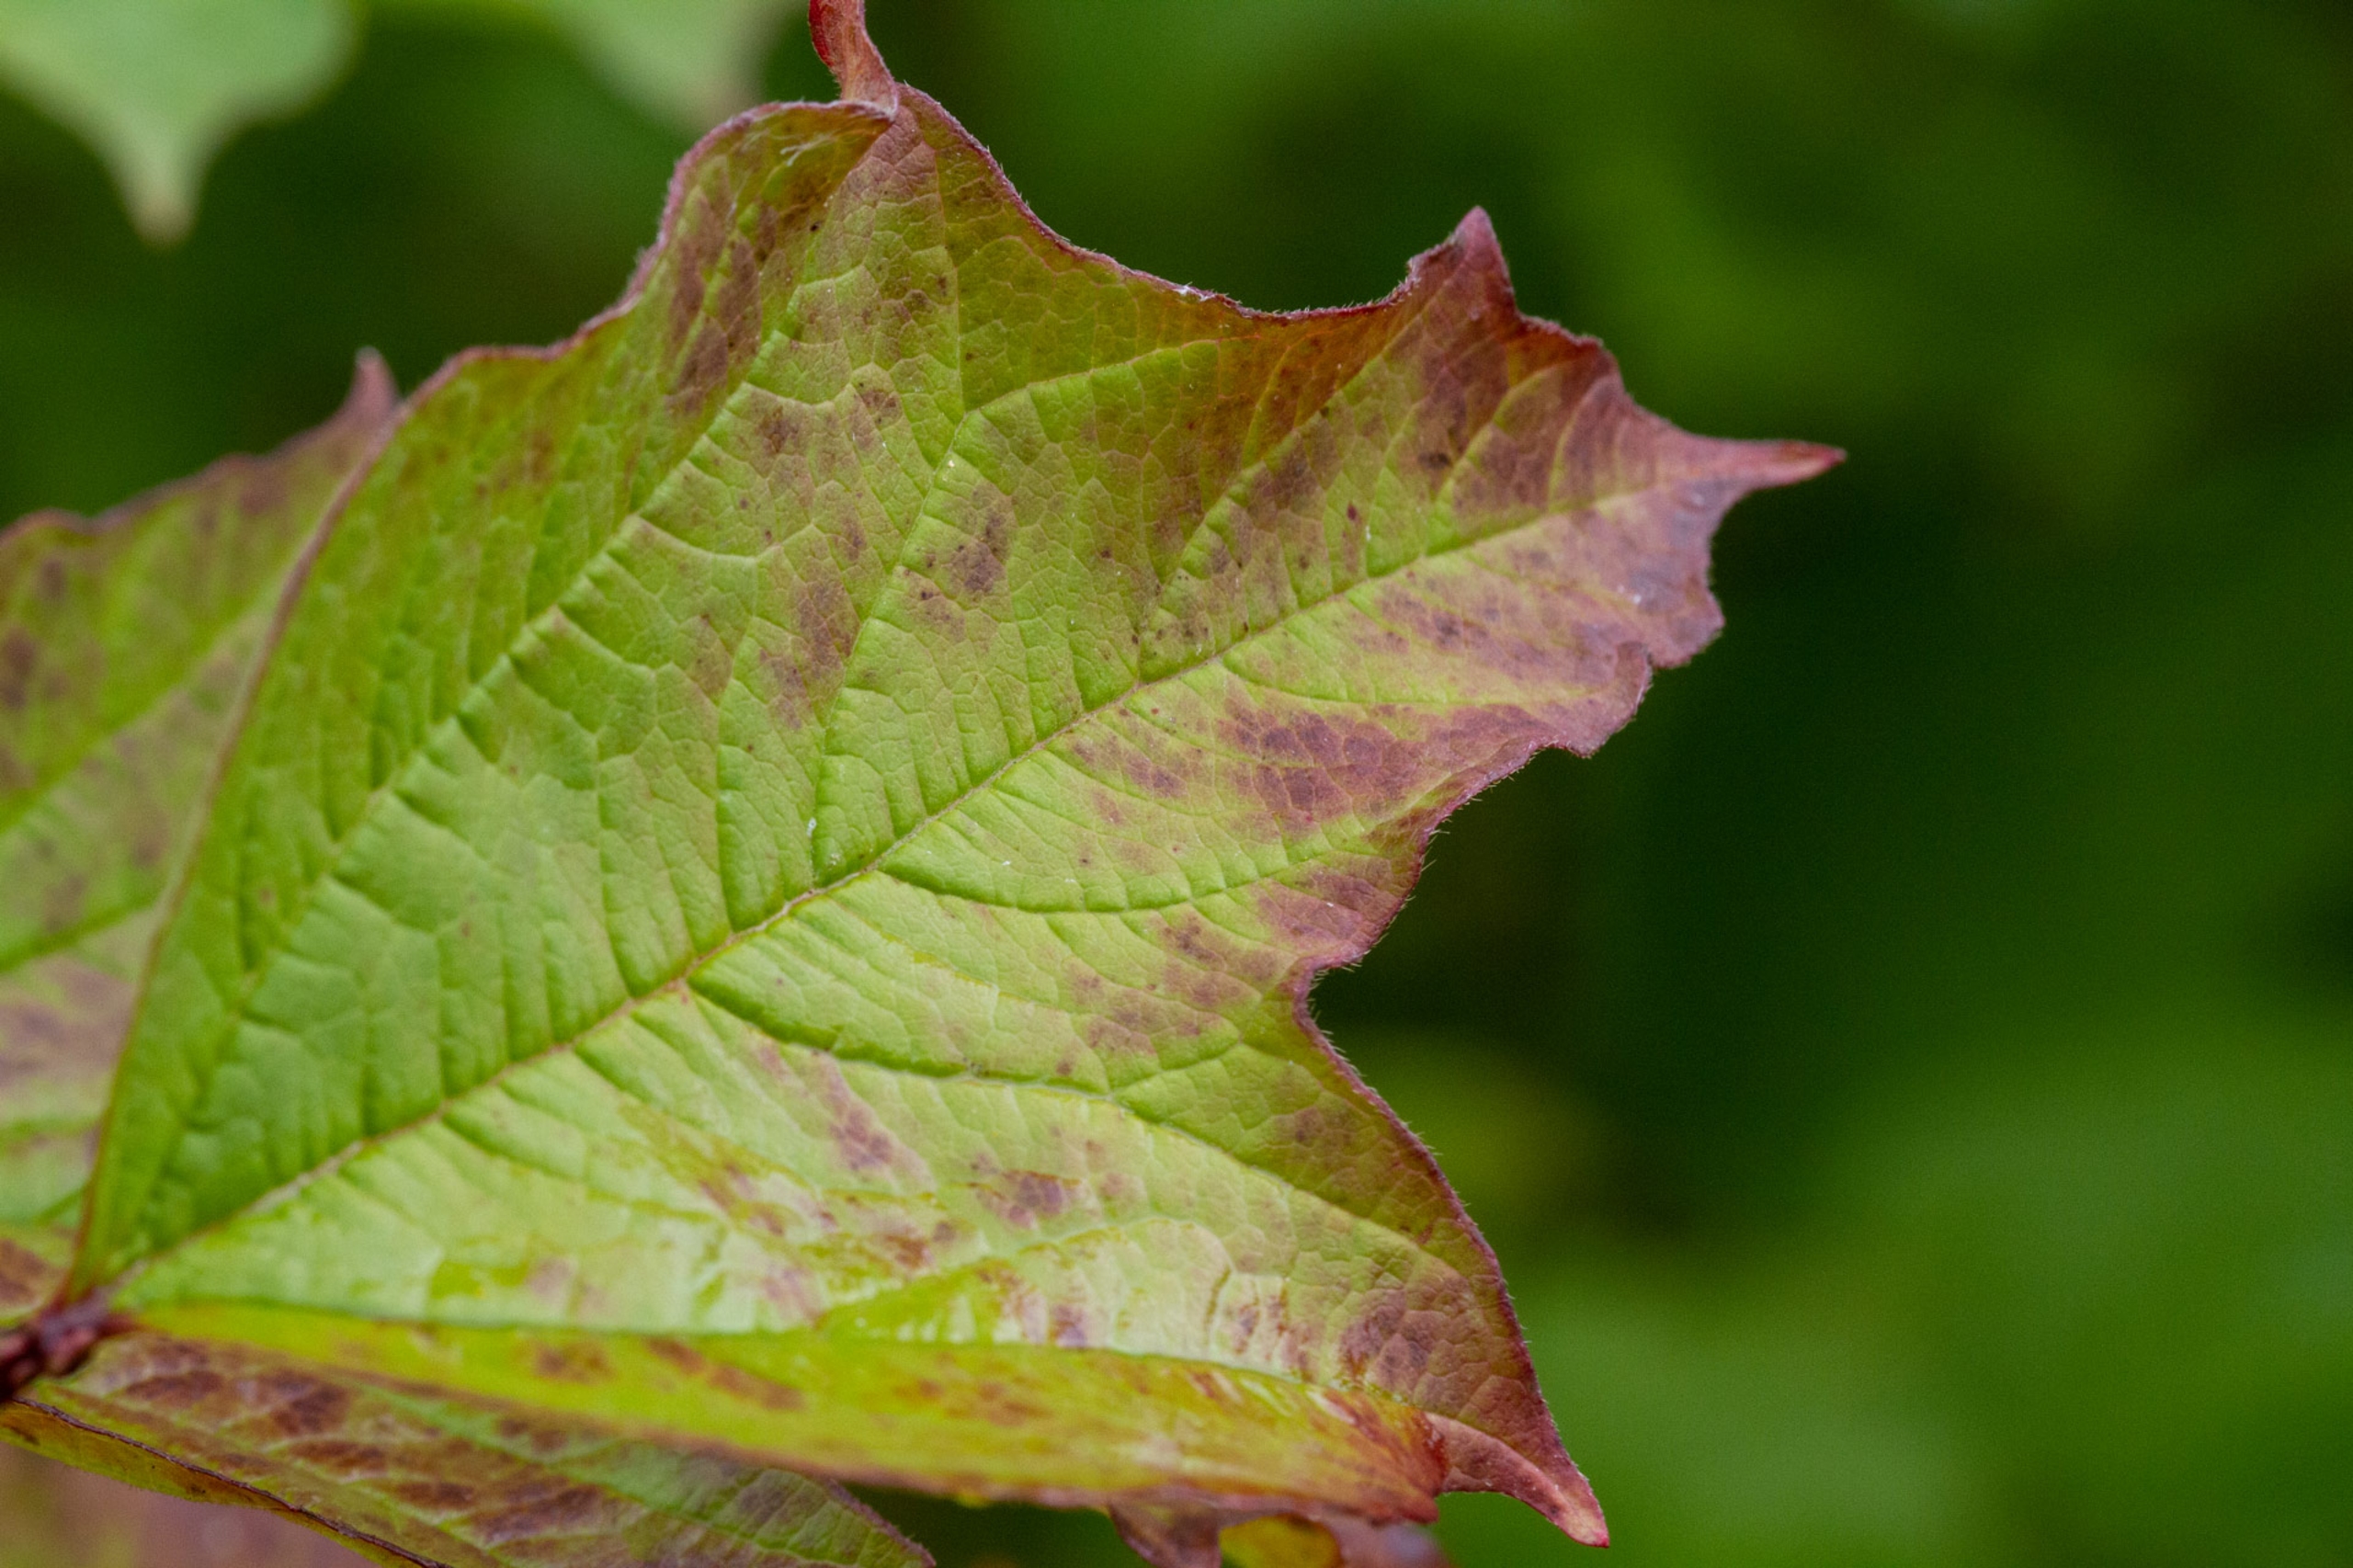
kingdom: Plantae
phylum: Tracheophyta
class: Magnoliopsida
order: Dipsacales
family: Viburnaceae
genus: Viburnum
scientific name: Viburnum opulus
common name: Kvalkved
